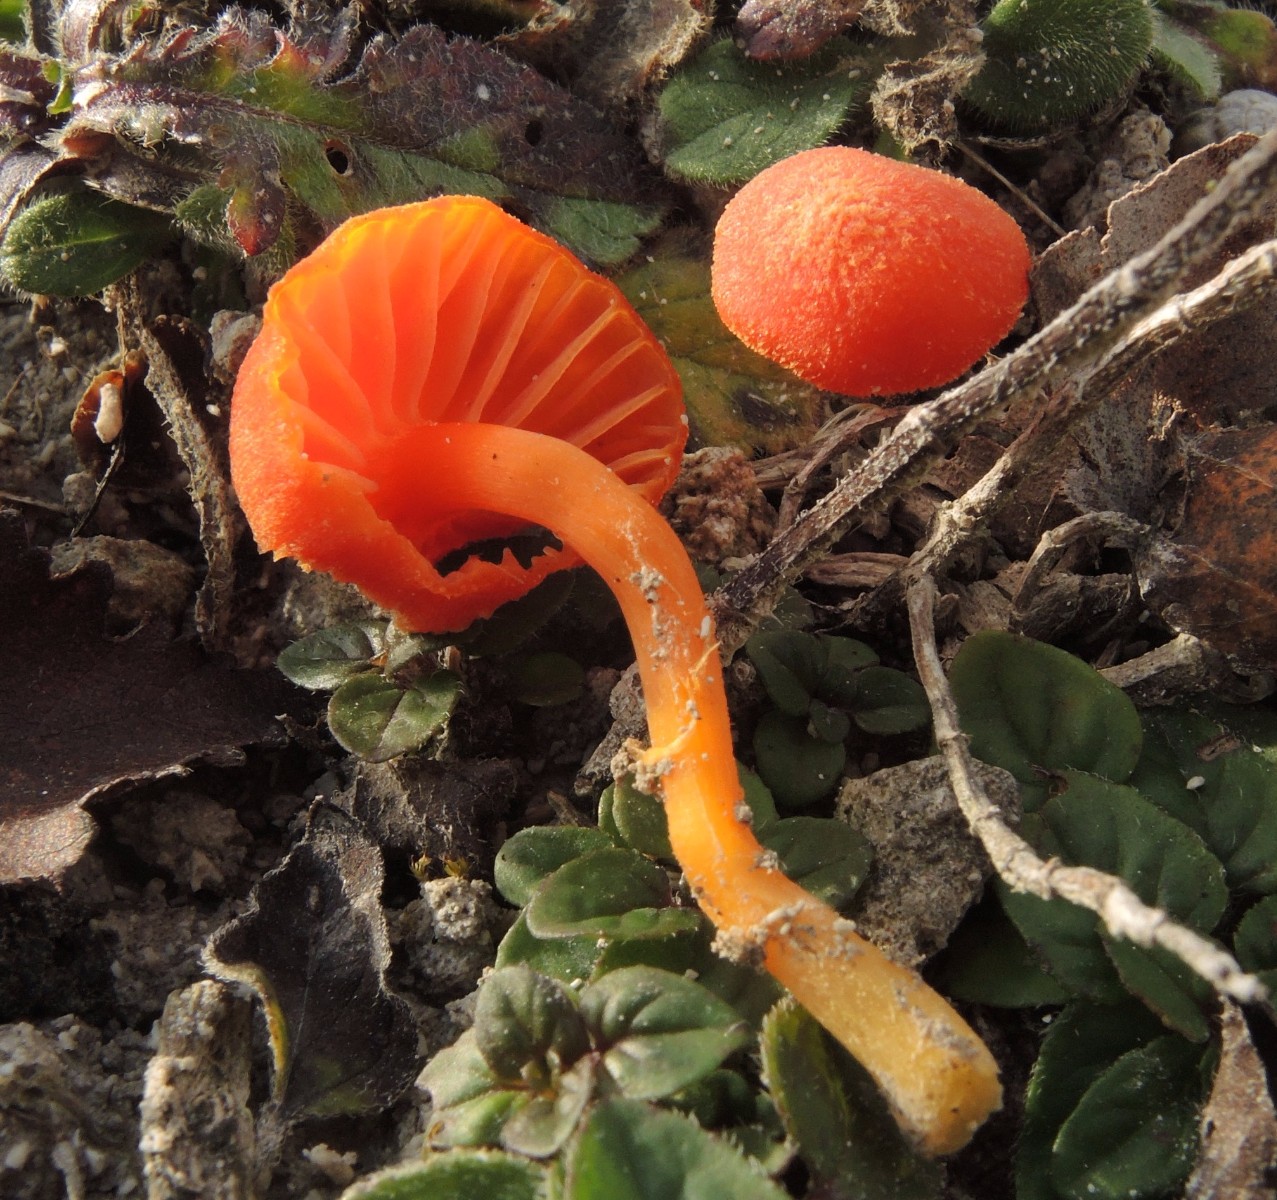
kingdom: Fungi
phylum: Basidiomycota
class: Agaricomycetes
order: Agaricales
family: Hygrophoraceae
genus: Hygrocybe
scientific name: Hygrocybe calciphila
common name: kalk-vokshat
